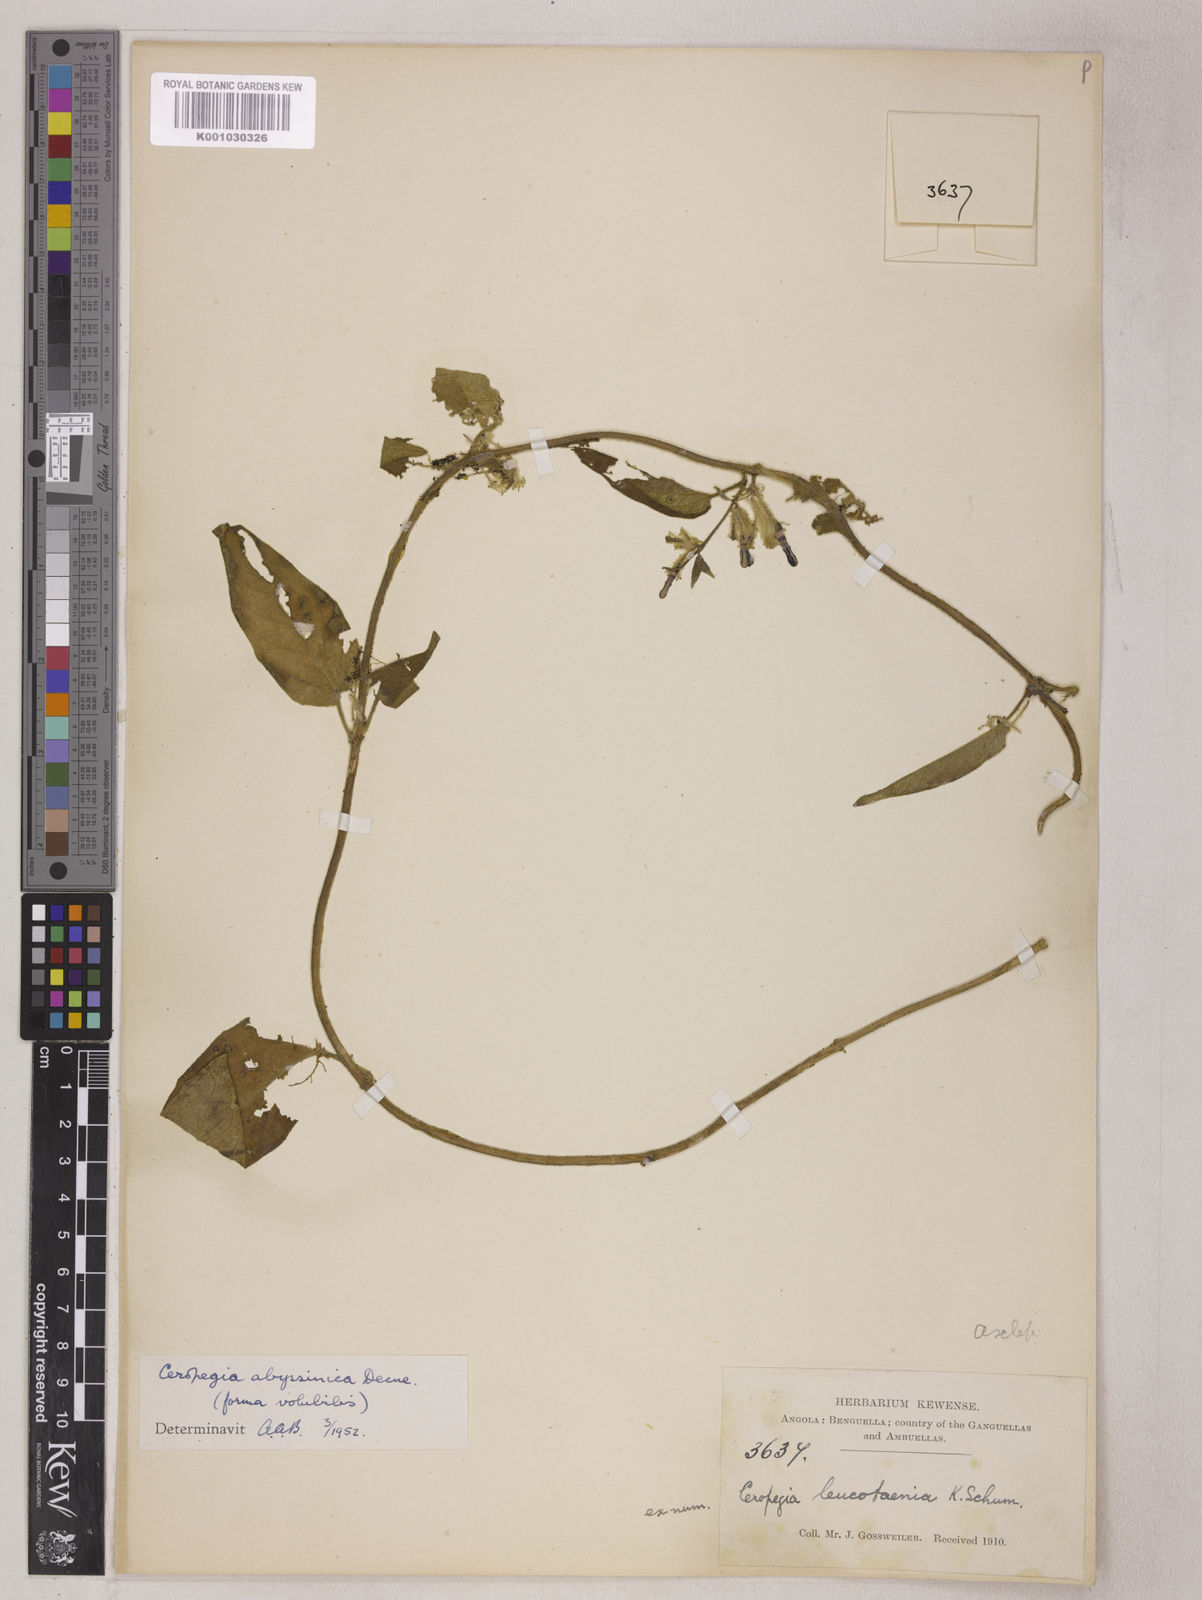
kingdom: Plantae
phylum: Tracheophyta
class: Magnoliopsida
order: Gentianales
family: Apocynaceae
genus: Ceropegia
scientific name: Ceropegia abyssinica
